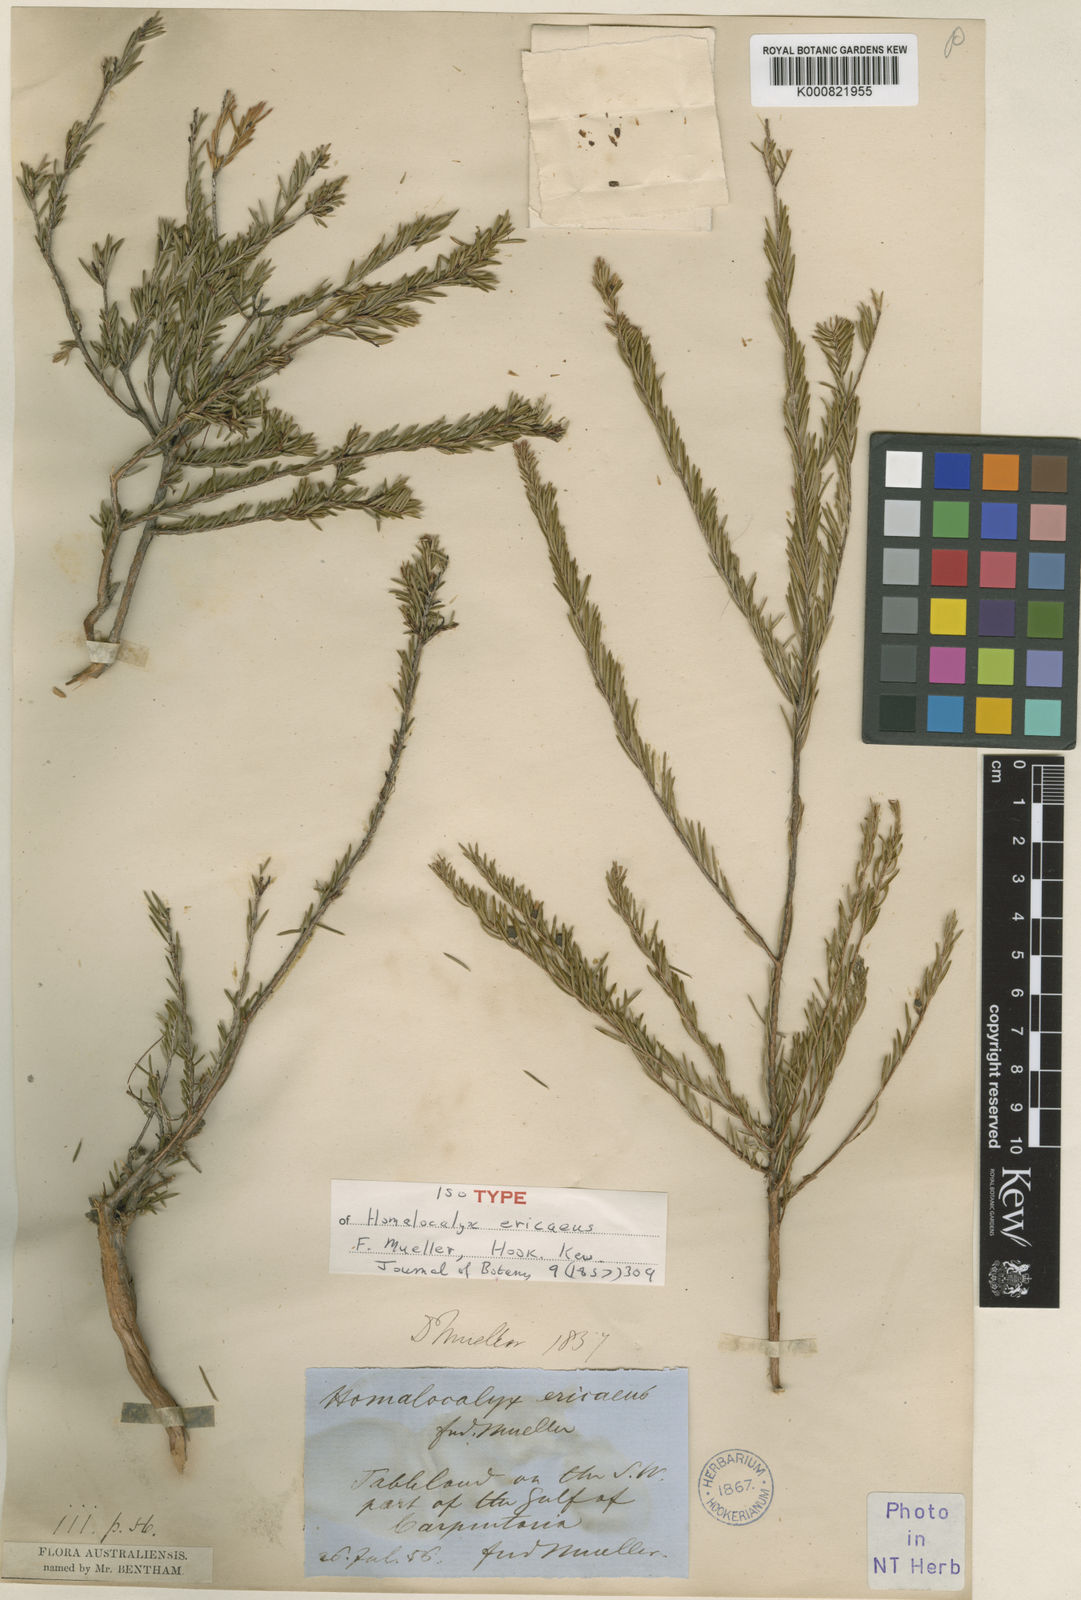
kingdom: Plantae
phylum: Tracheophyta
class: Magnoliopsida
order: Myrtales
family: Myrtaceae
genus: Homalocalyx
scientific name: Homalocalyx ericaeus
